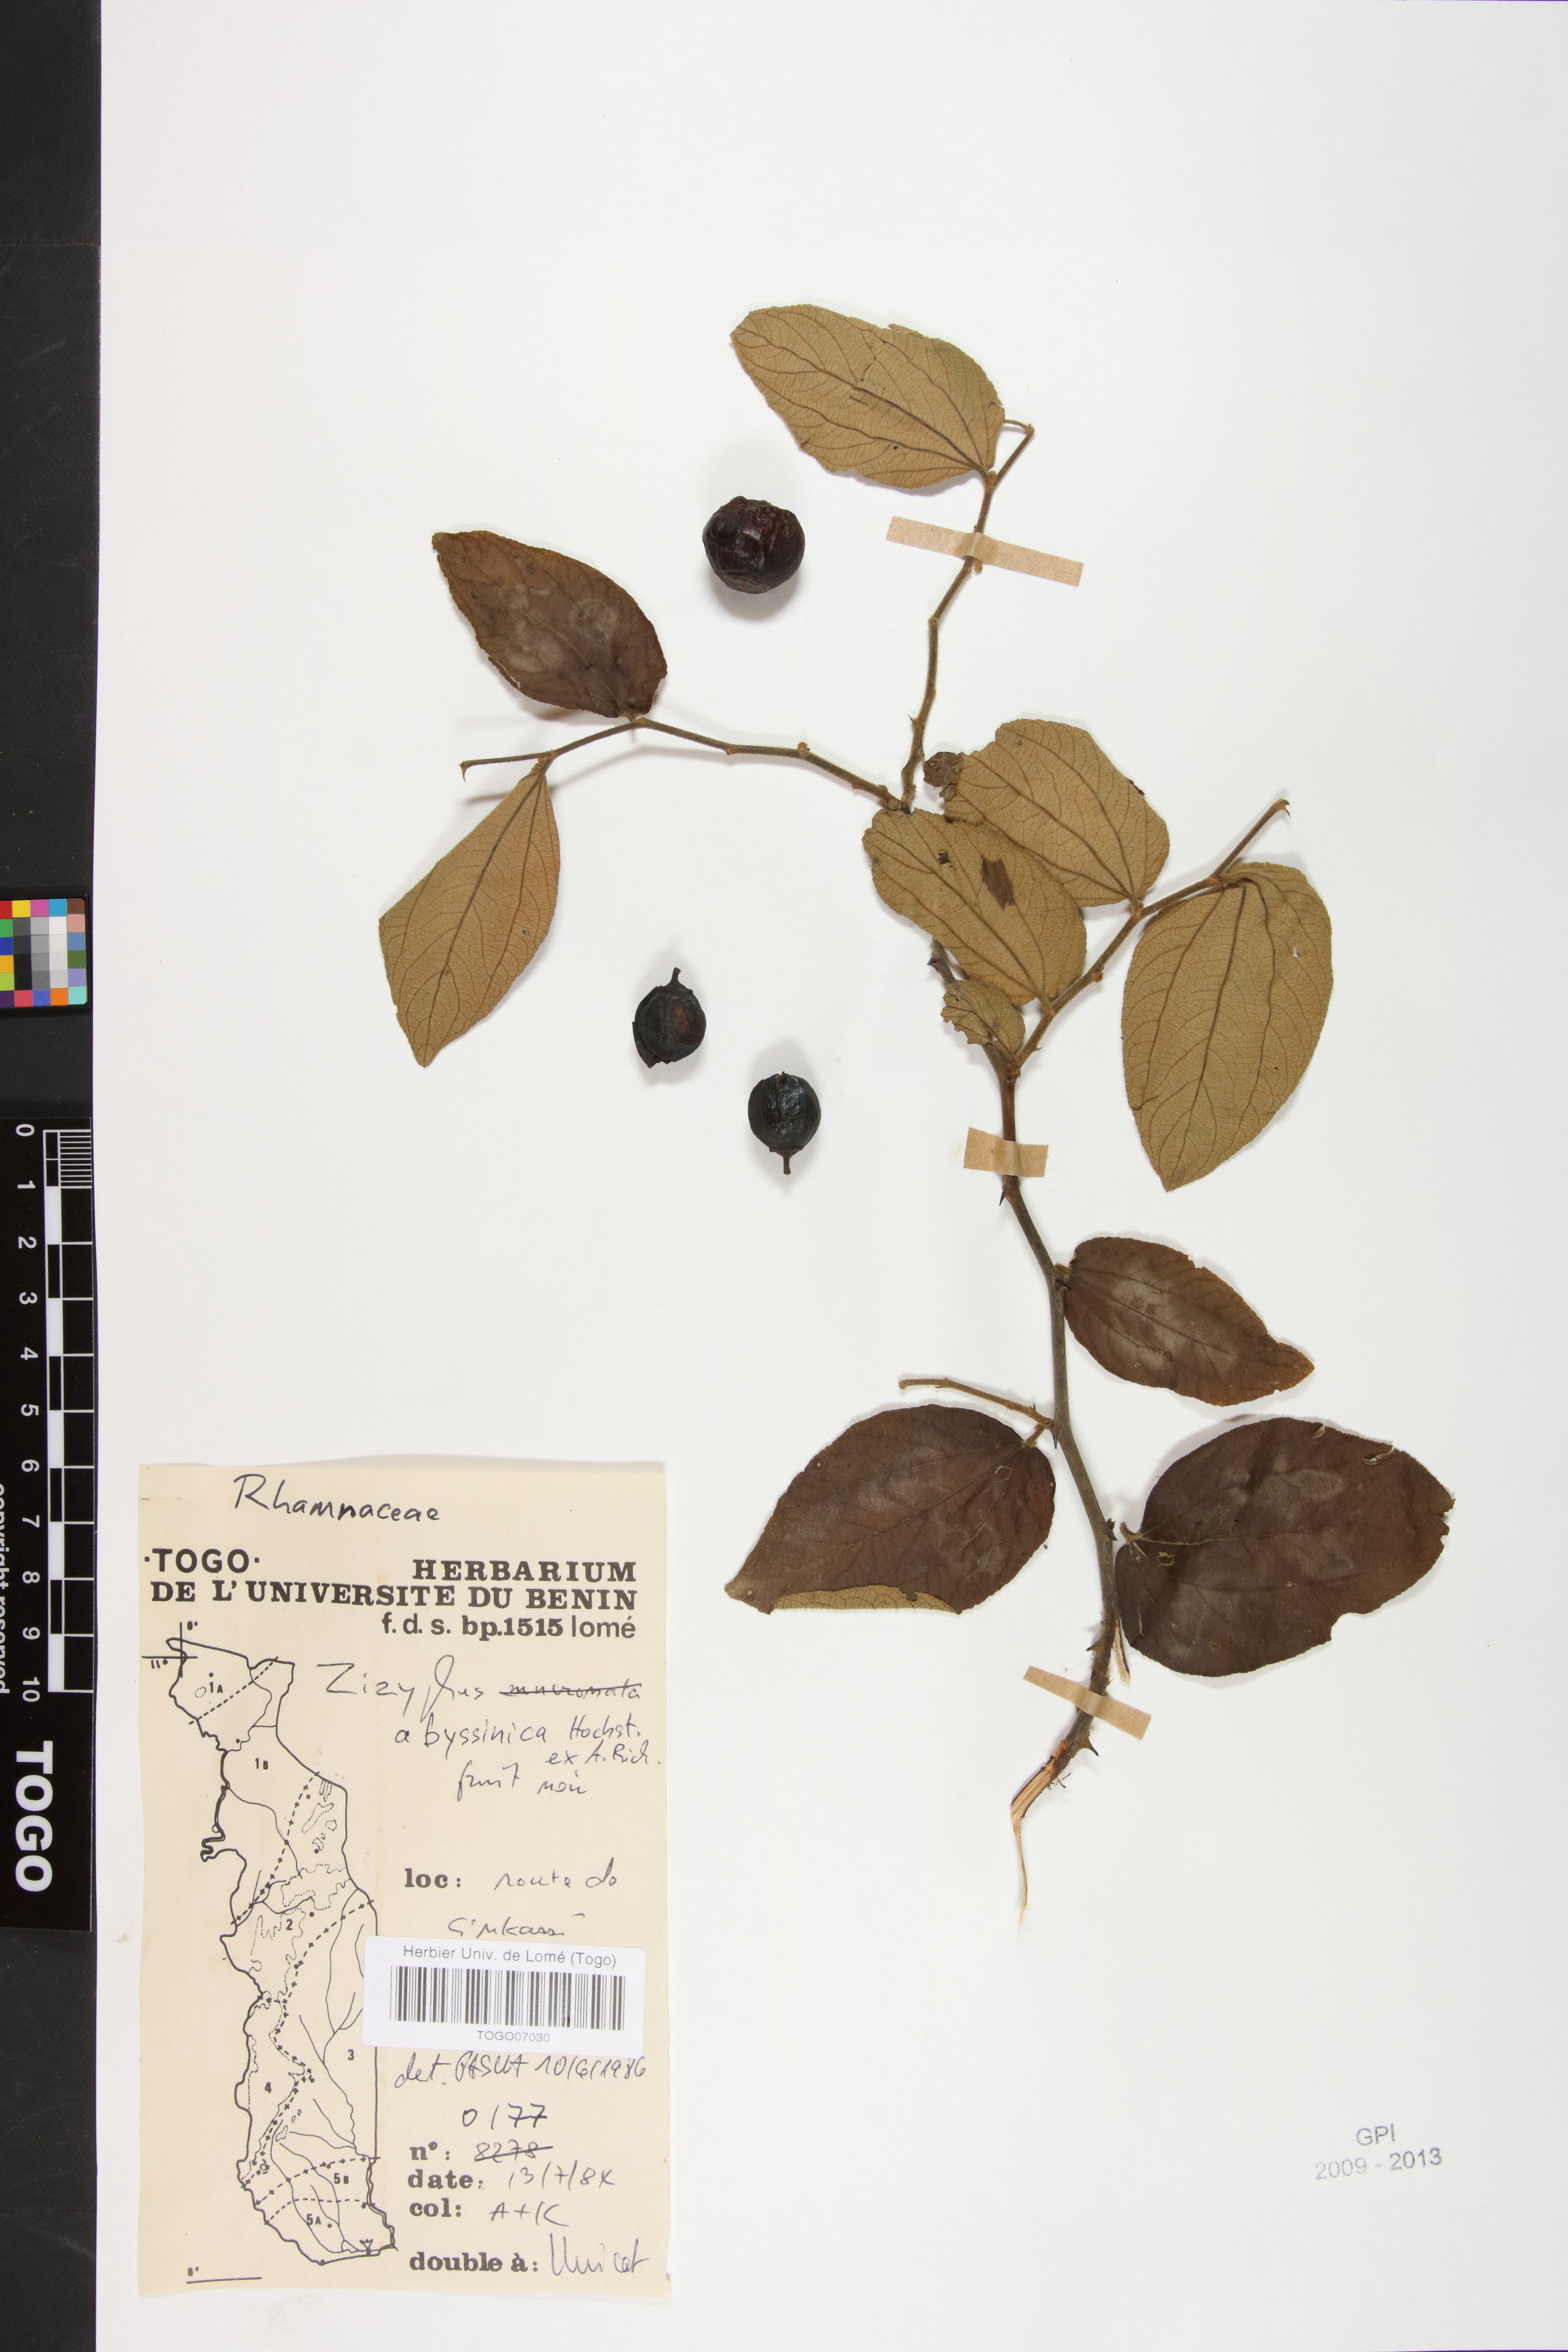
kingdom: Plantae
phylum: Tracheophyta
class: Magnoliopsida
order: Rosales
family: Rhamnaceae
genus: Ziziphus
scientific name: Ziziphus abyssinica
